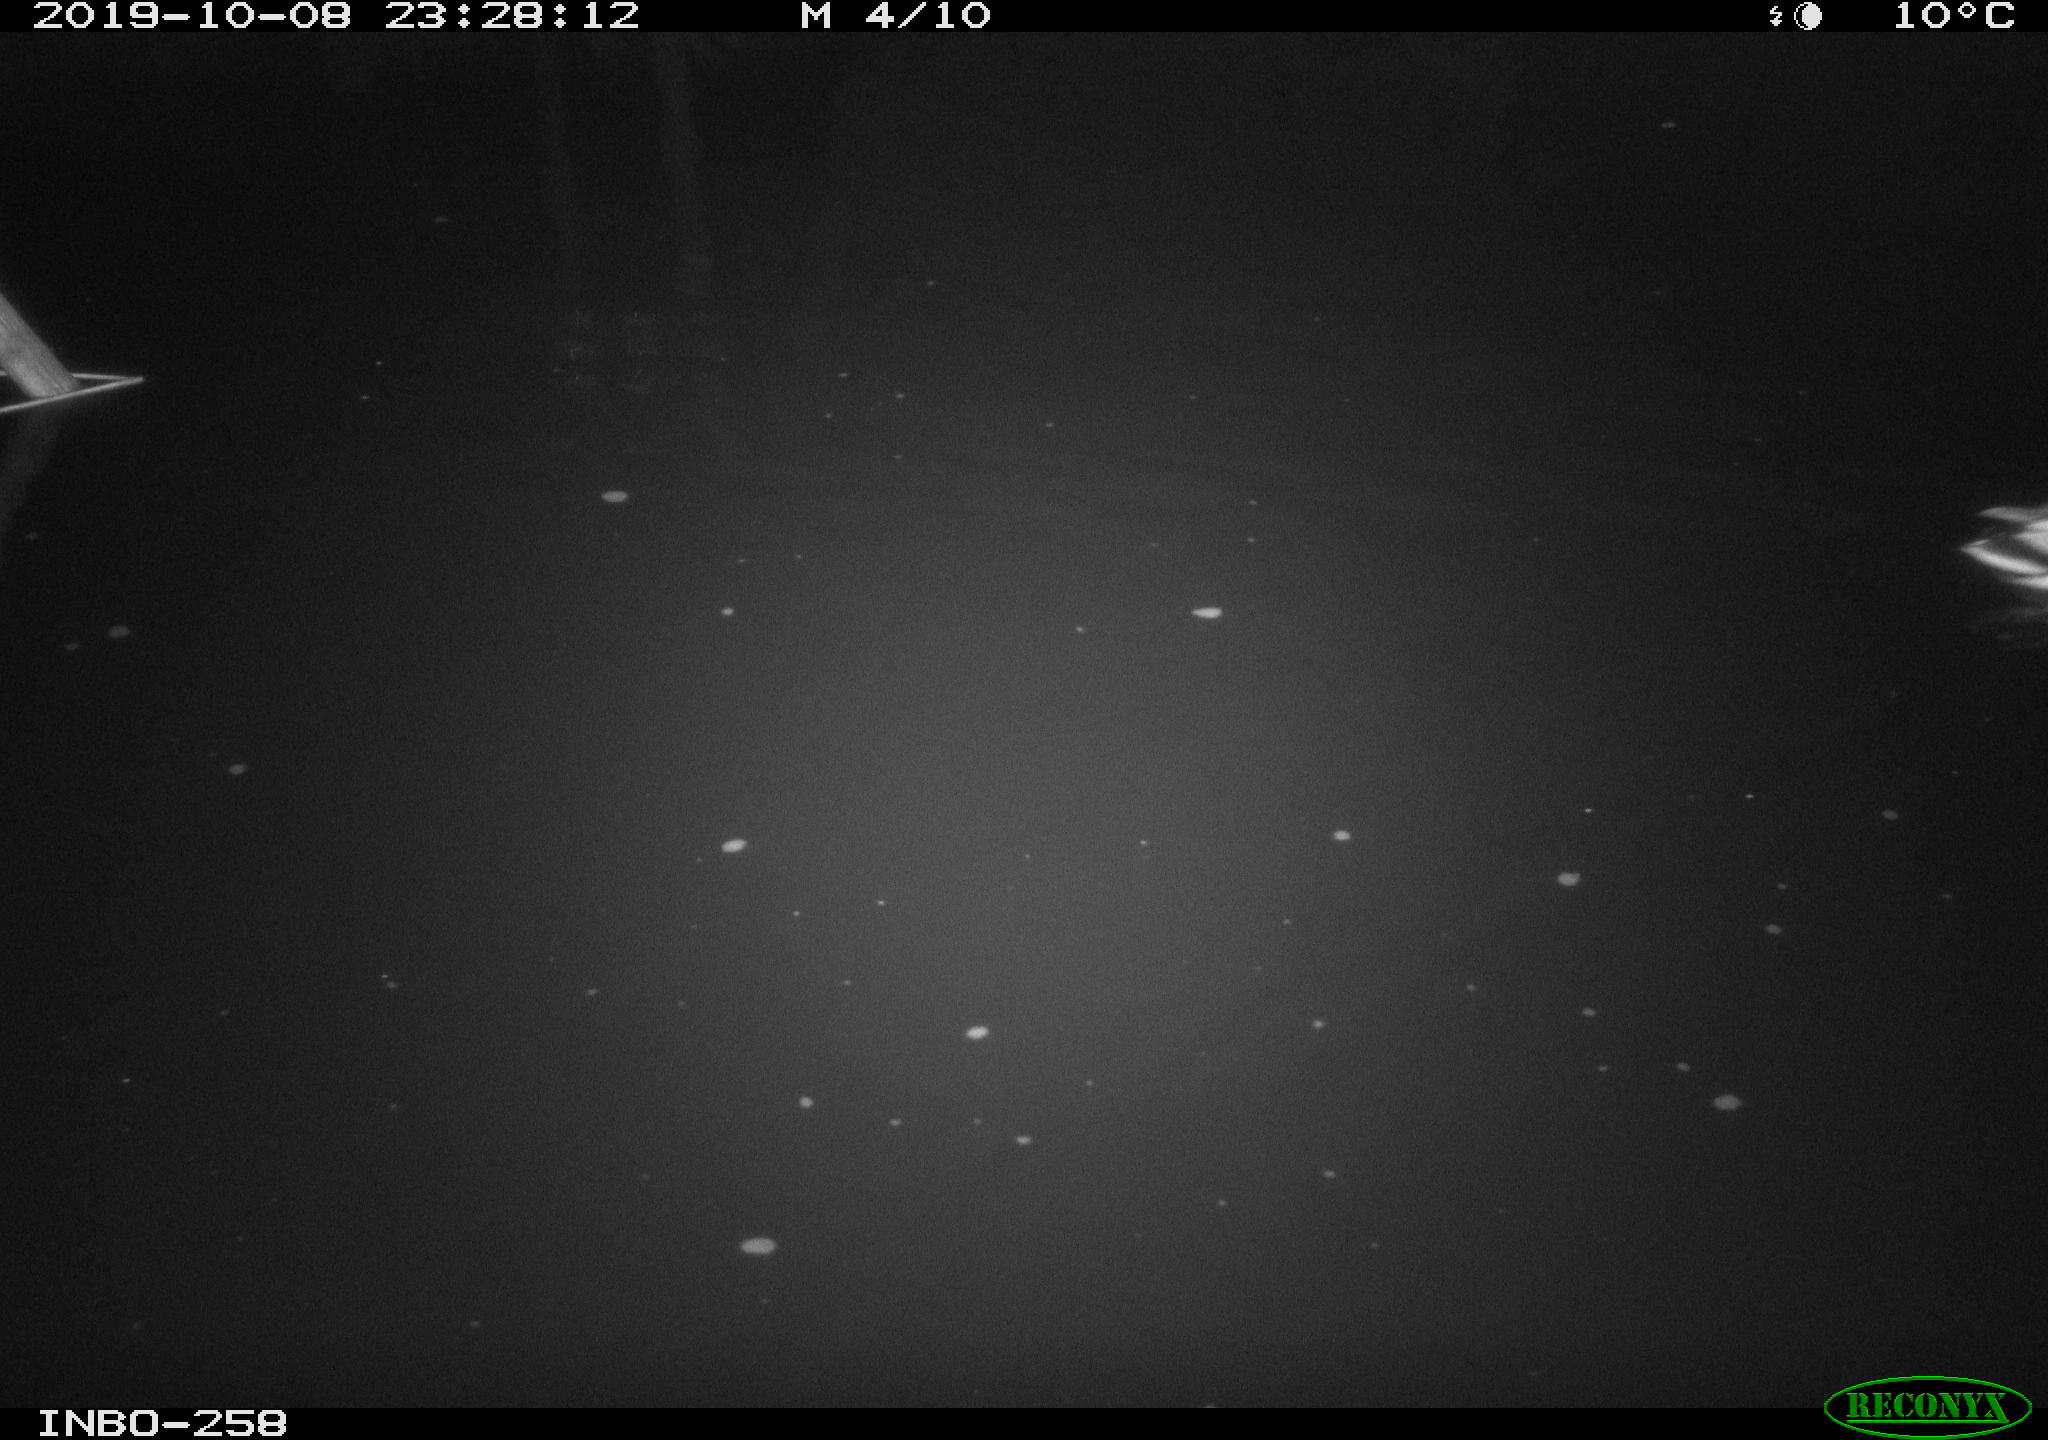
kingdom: Animalia
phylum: Chordata
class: Aves
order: Anseriformes
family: Anatidae
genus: Anas
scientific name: Anas platyrhynchos
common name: Mallard
